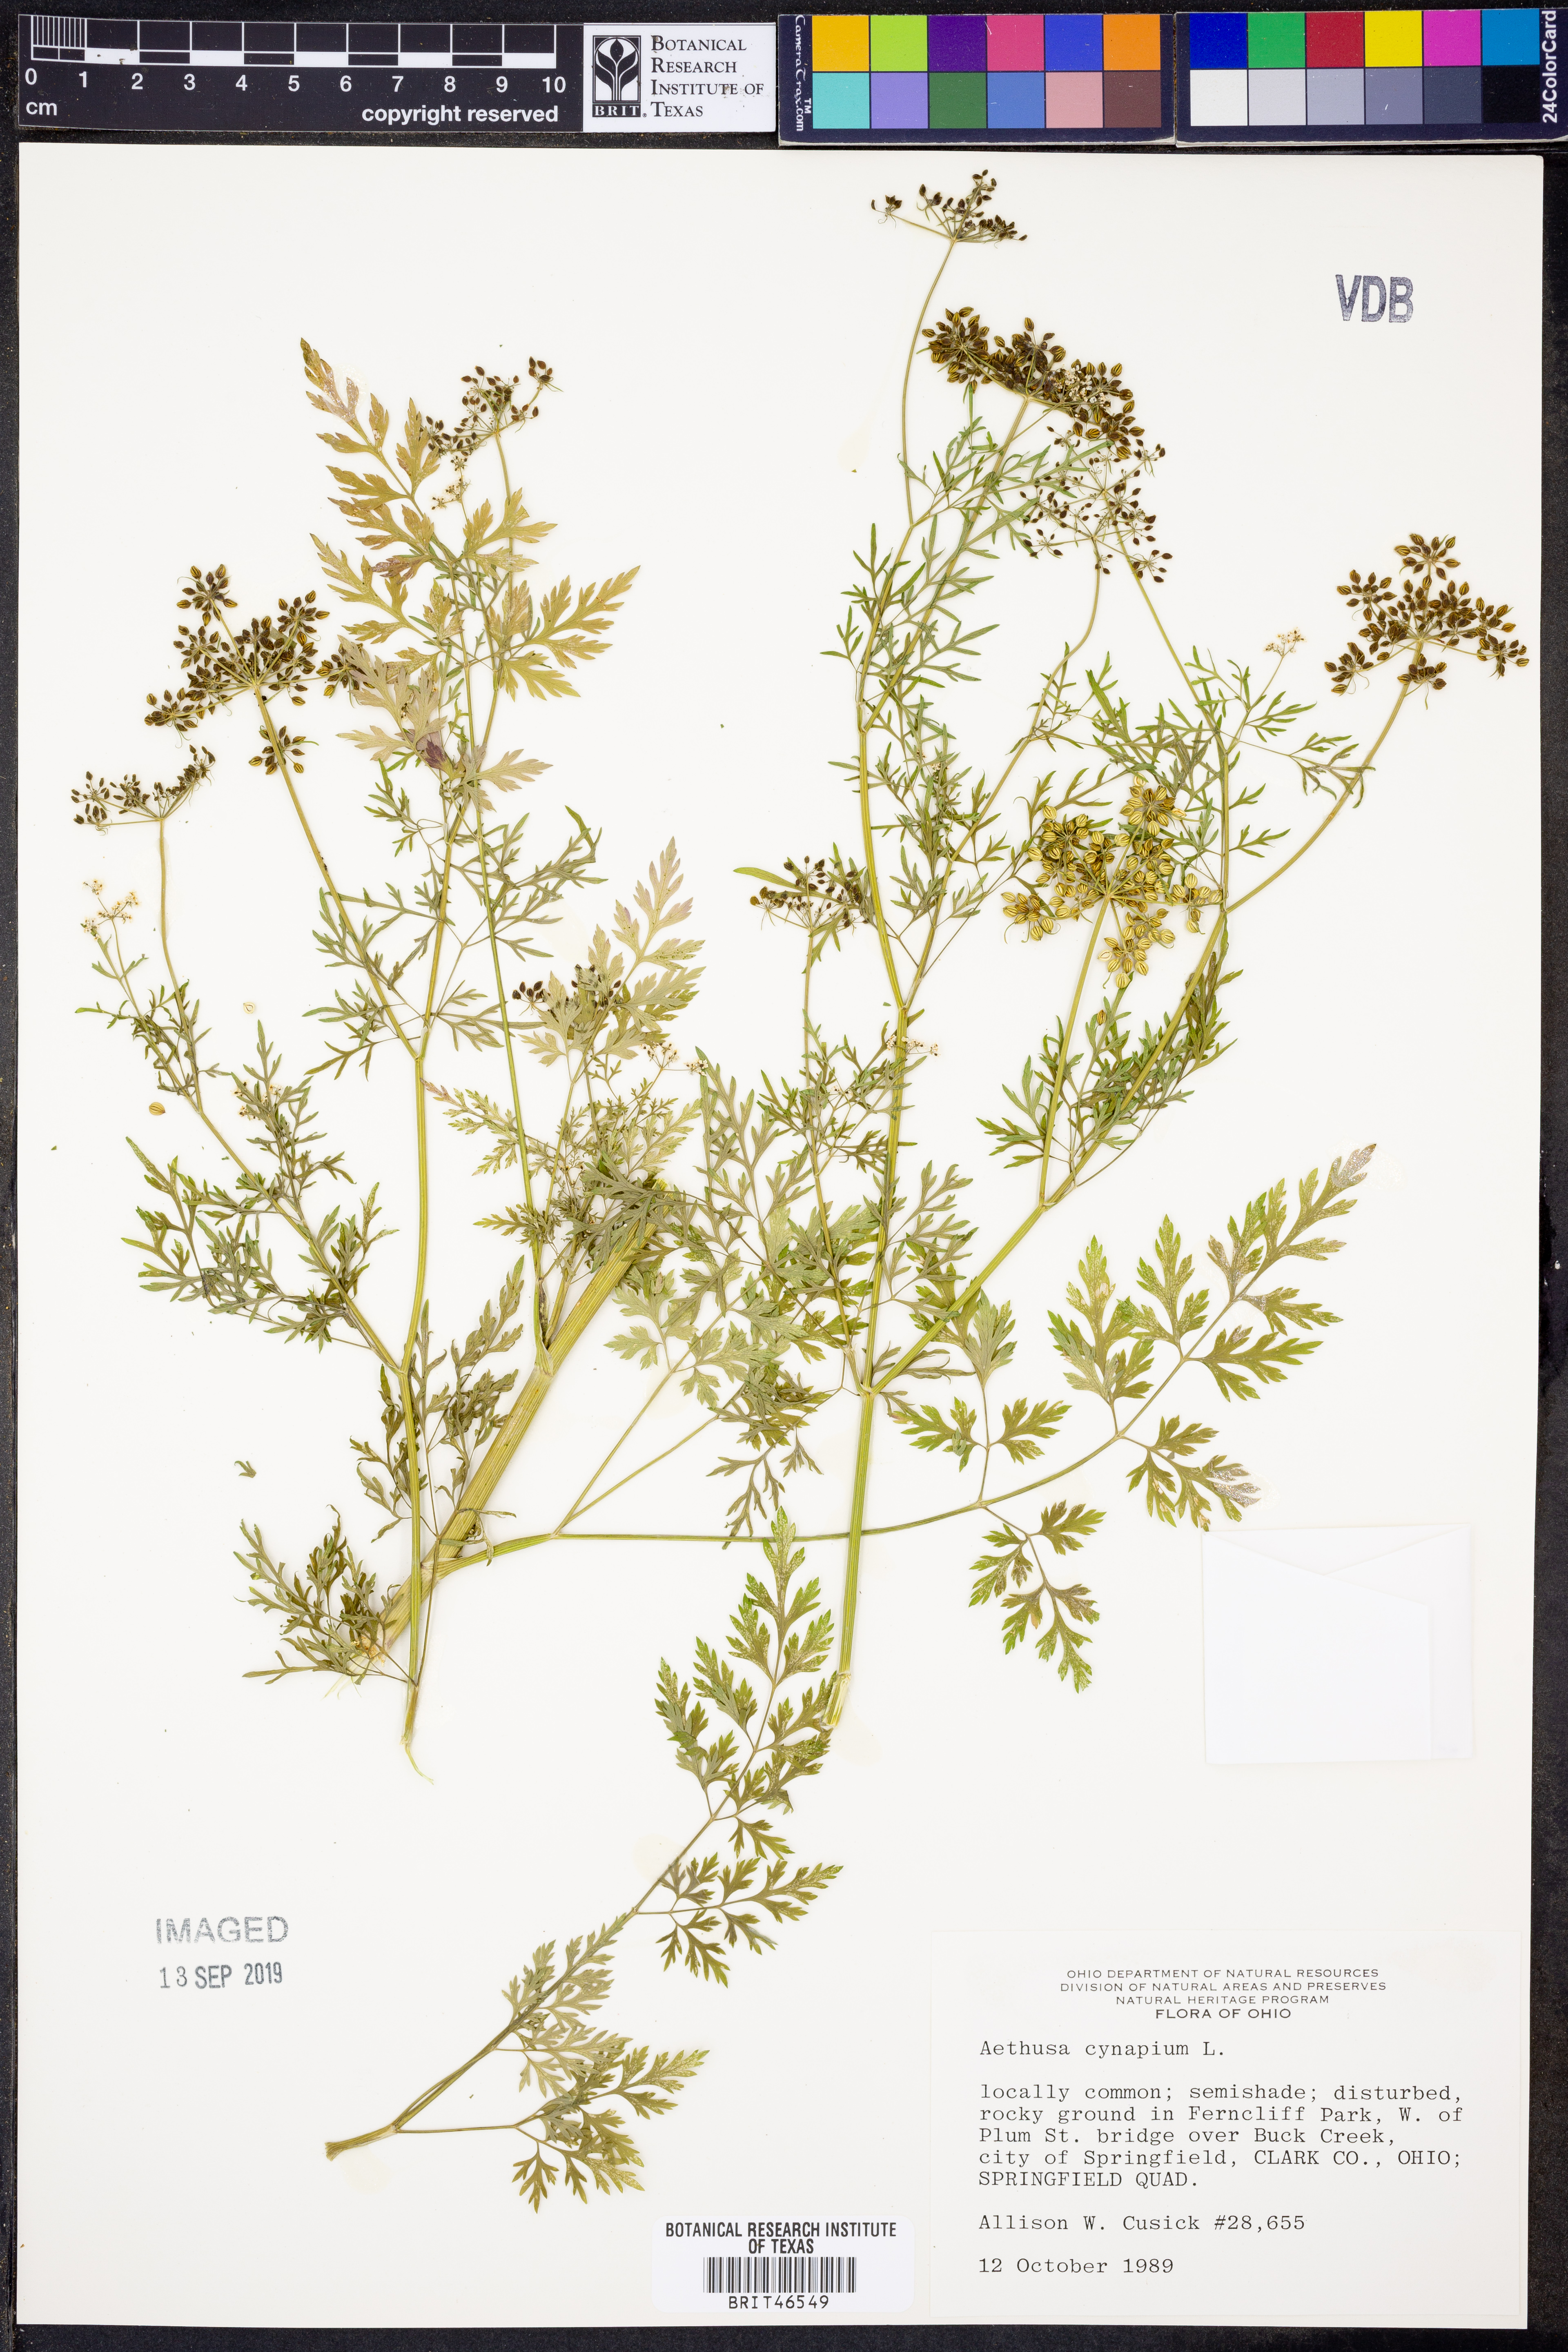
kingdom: Plantae
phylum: Tracheophyta
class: Magnoliopsida
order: Apiales
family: Apiaceae
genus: Aethusa
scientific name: Aethusa cynapium
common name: Fool's parsley
